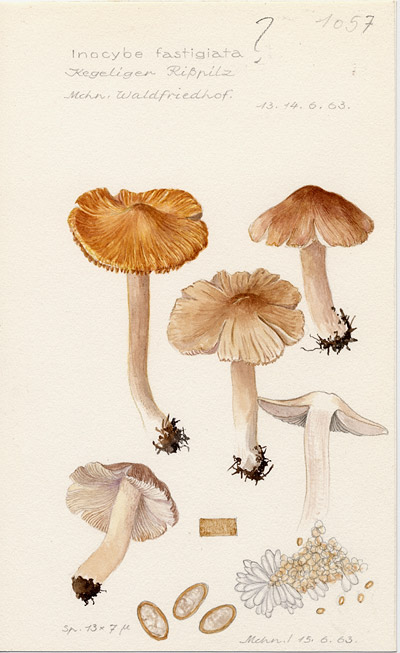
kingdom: Fungi
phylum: Basidiomycota
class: Agaricomycetes
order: Agaricales
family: Inocybaceae
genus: Pseudosperma
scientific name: Pseudosperma rimosum
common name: Split fibrecap
